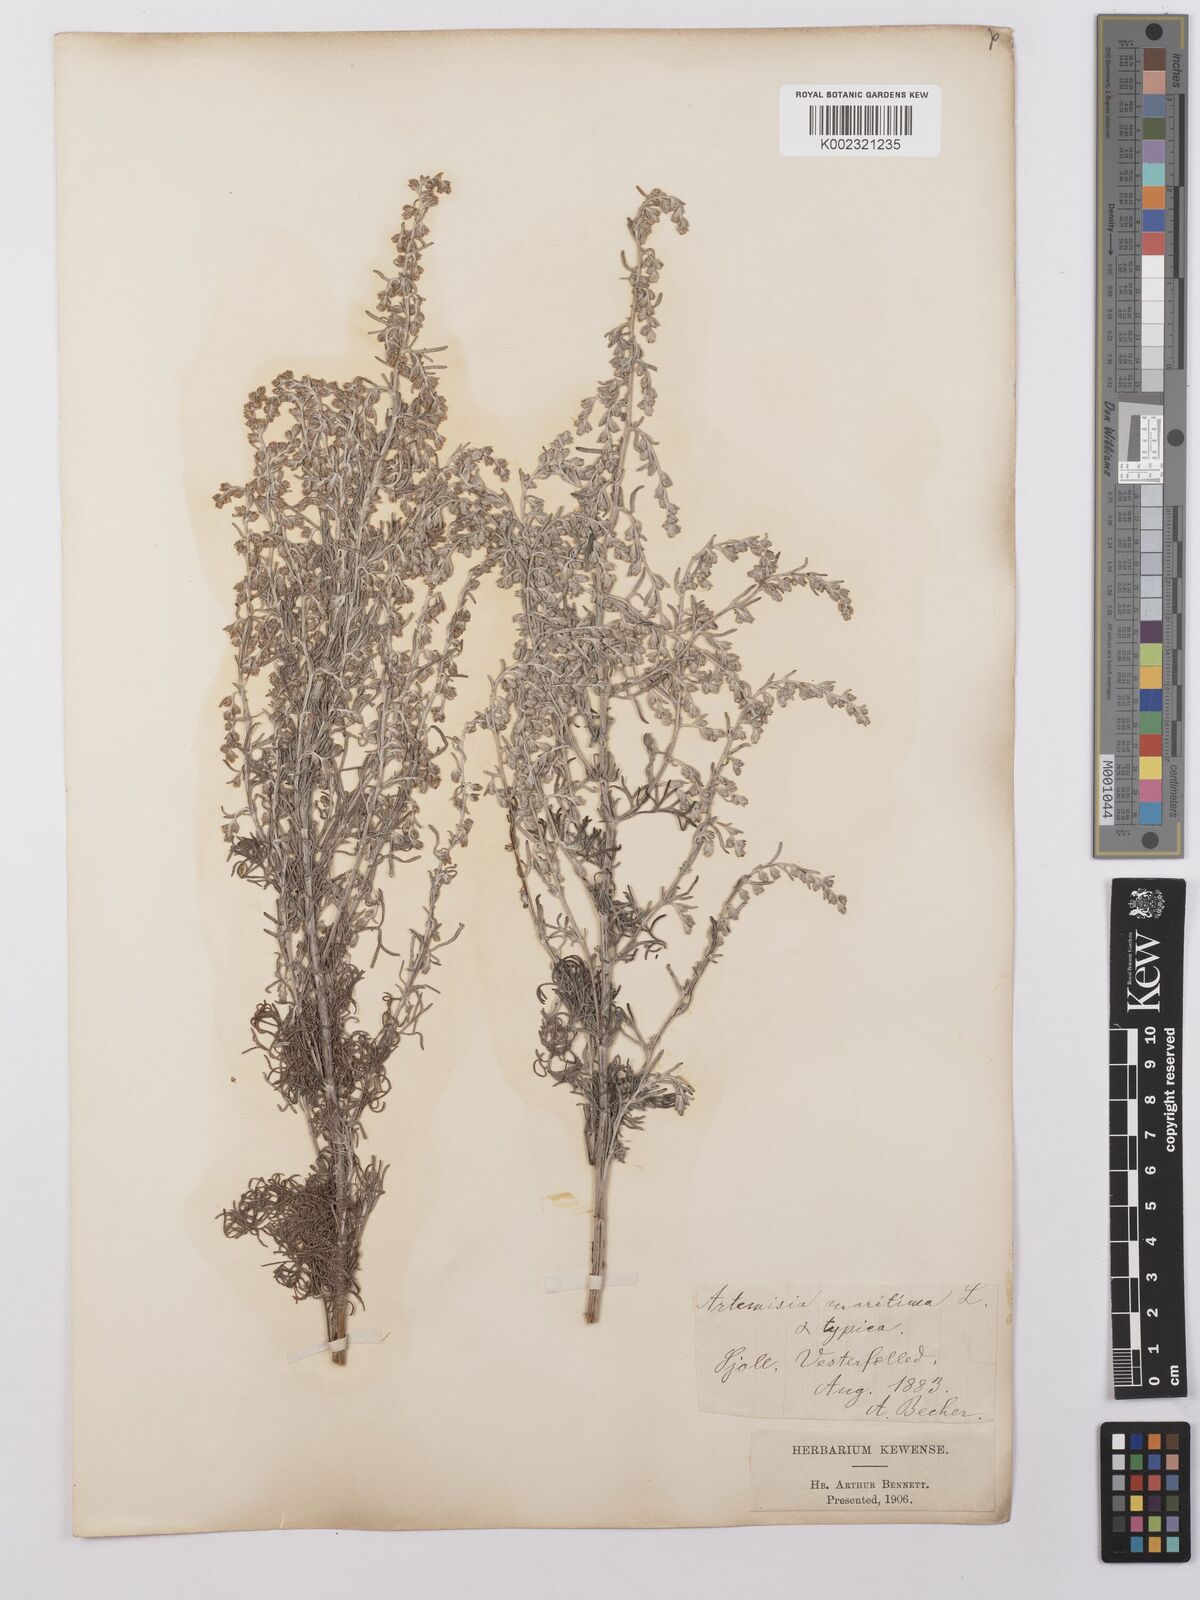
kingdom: Plantae
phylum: Tracheophyta
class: Magnoliopsida
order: Asterales
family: Asteraceae
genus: Artemisia
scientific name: Artemisia maritima
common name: Wormseed
